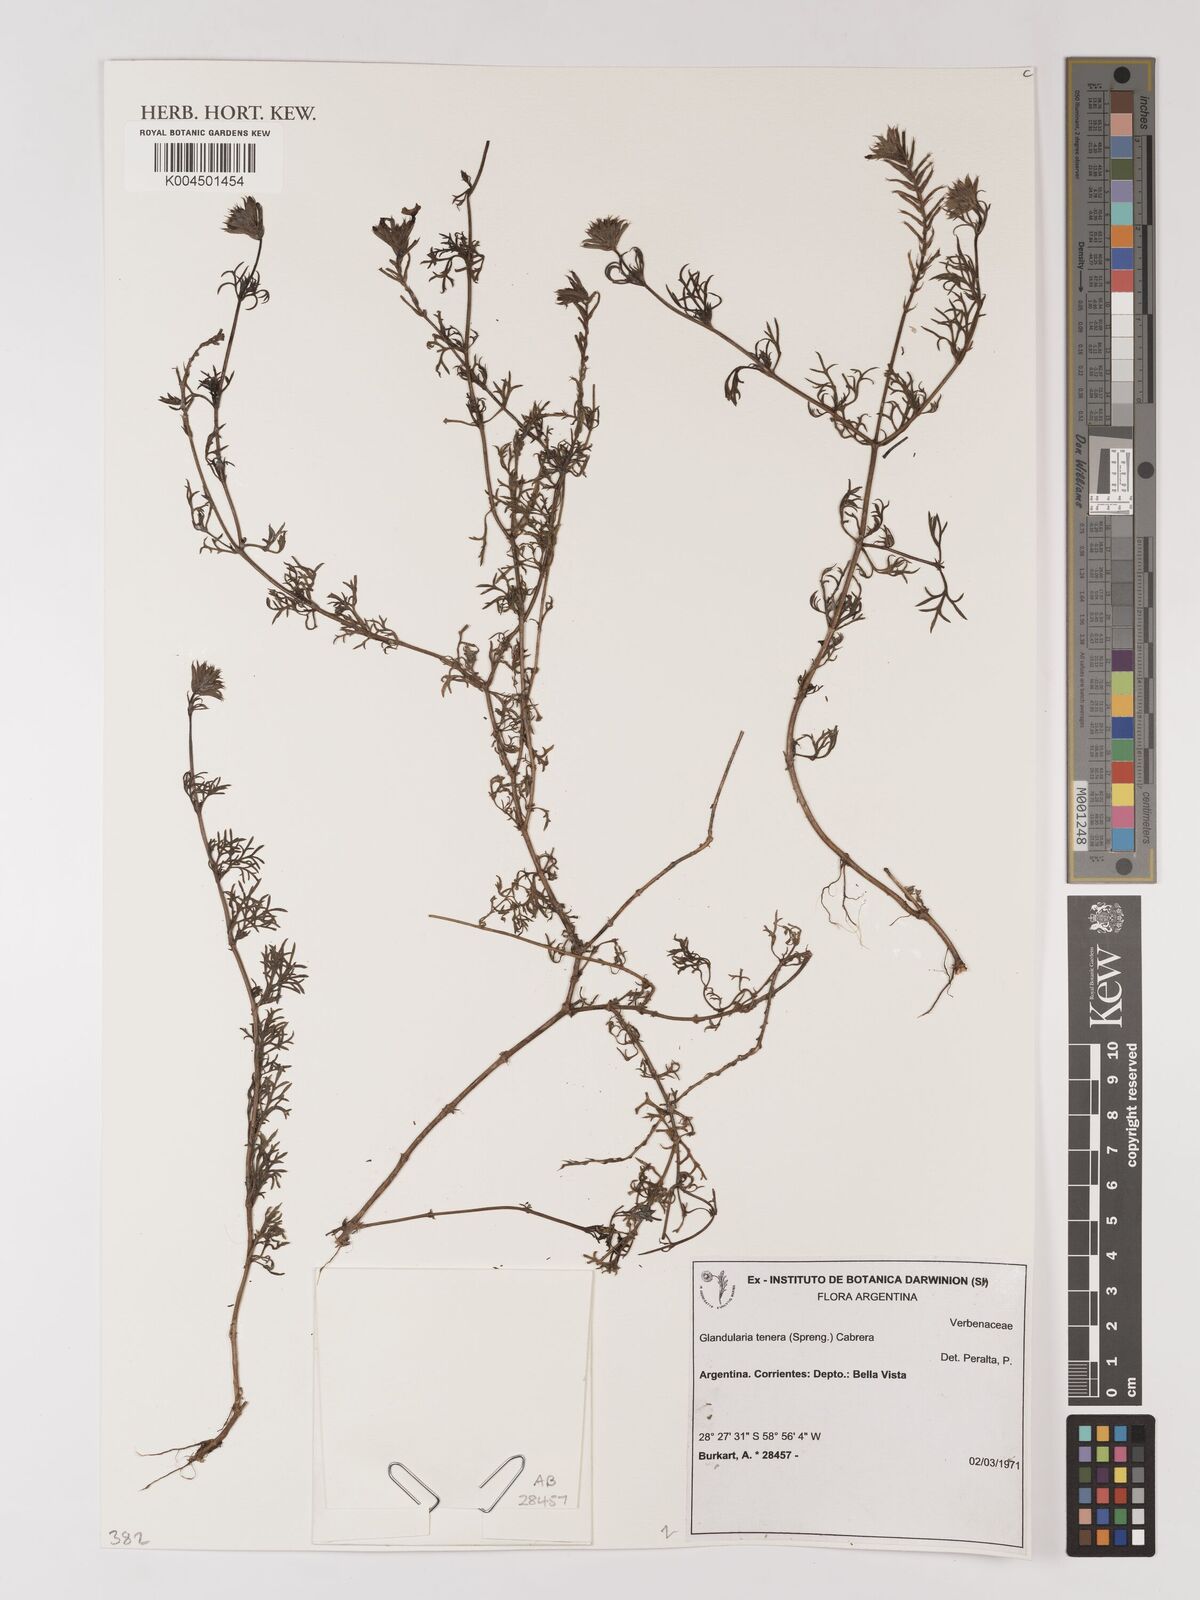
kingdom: Plantae
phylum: Tracheophyta
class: Magnoliopsida
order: Lamiales
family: Verbenaceae
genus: Verbena
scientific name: Verbena tenera
